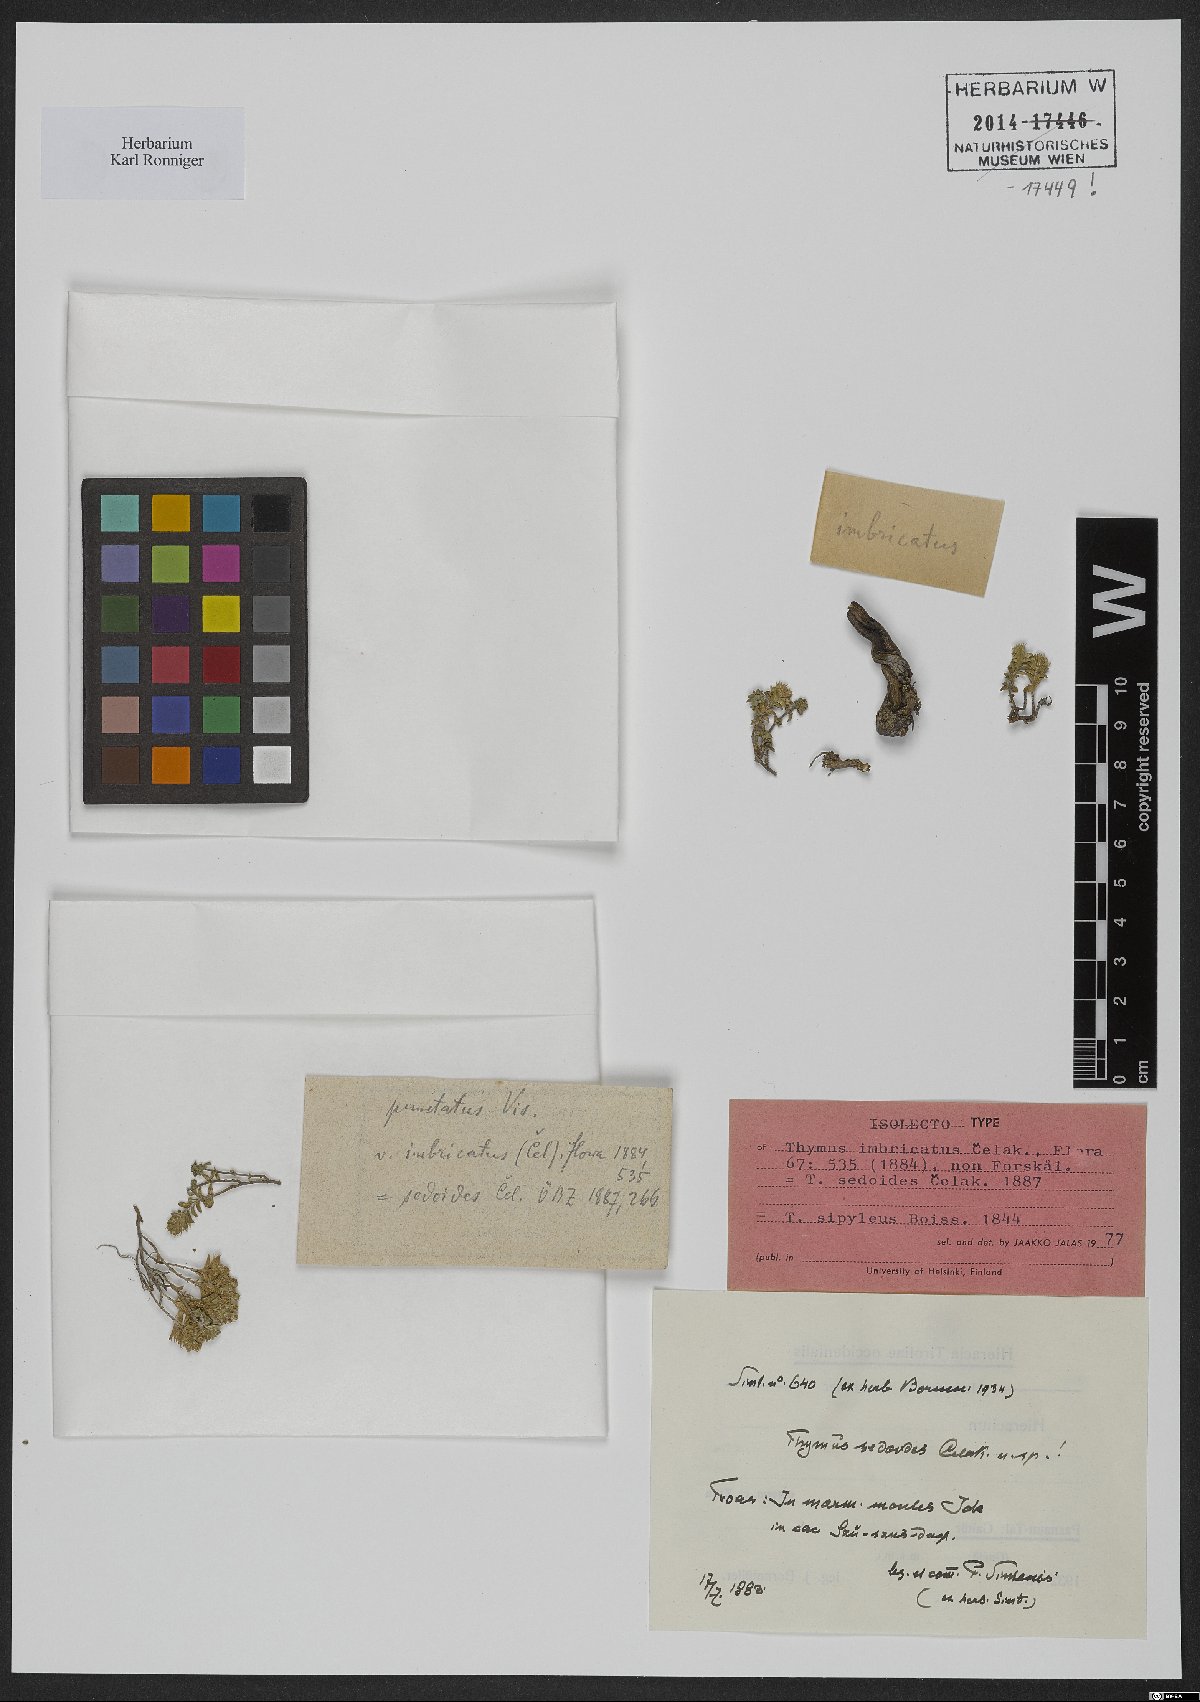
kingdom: Plantae
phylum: Tracheophyta
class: Magnoliopsida
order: Lamiales
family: Lamiaceae
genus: Thymus
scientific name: Thymus sipyleus
